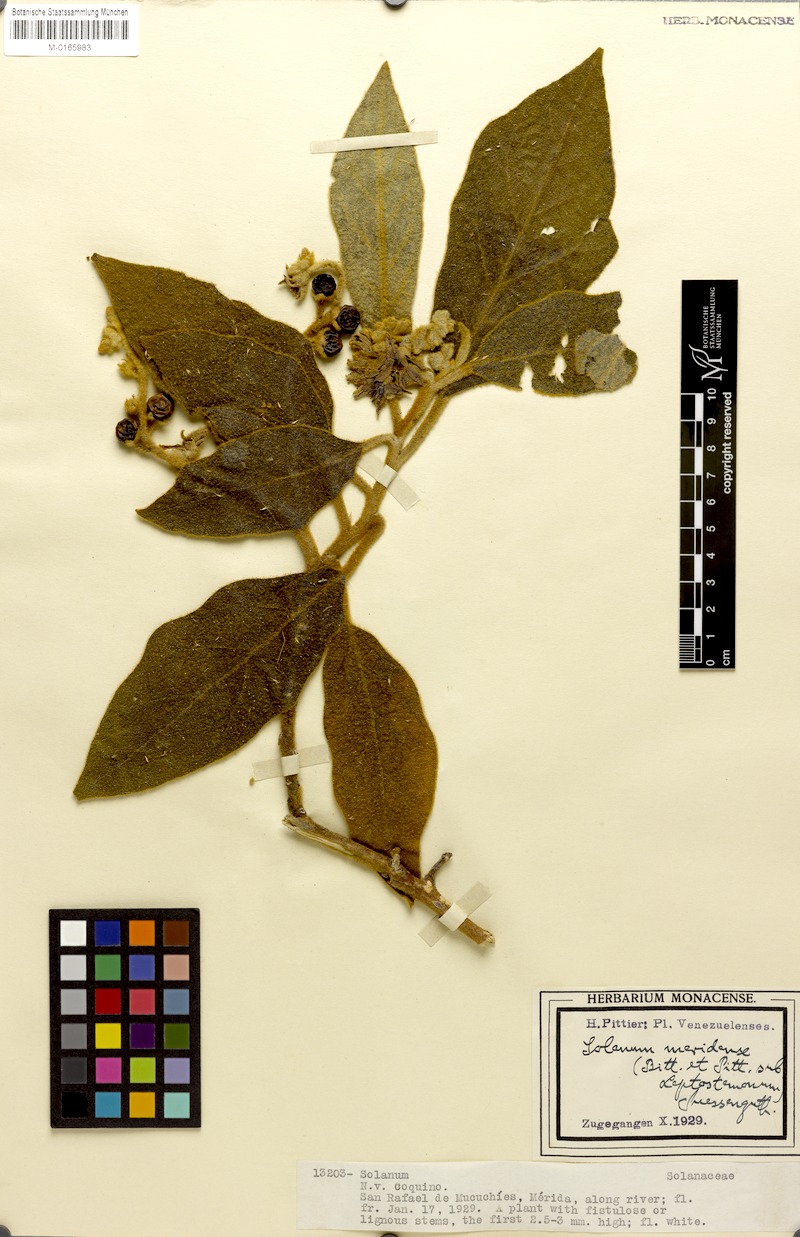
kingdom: Plantae
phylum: Tracheophyta
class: Magnoliopsida
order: Solanales
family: Solanaceae
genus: Solanum
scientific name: Solanum hirtum
